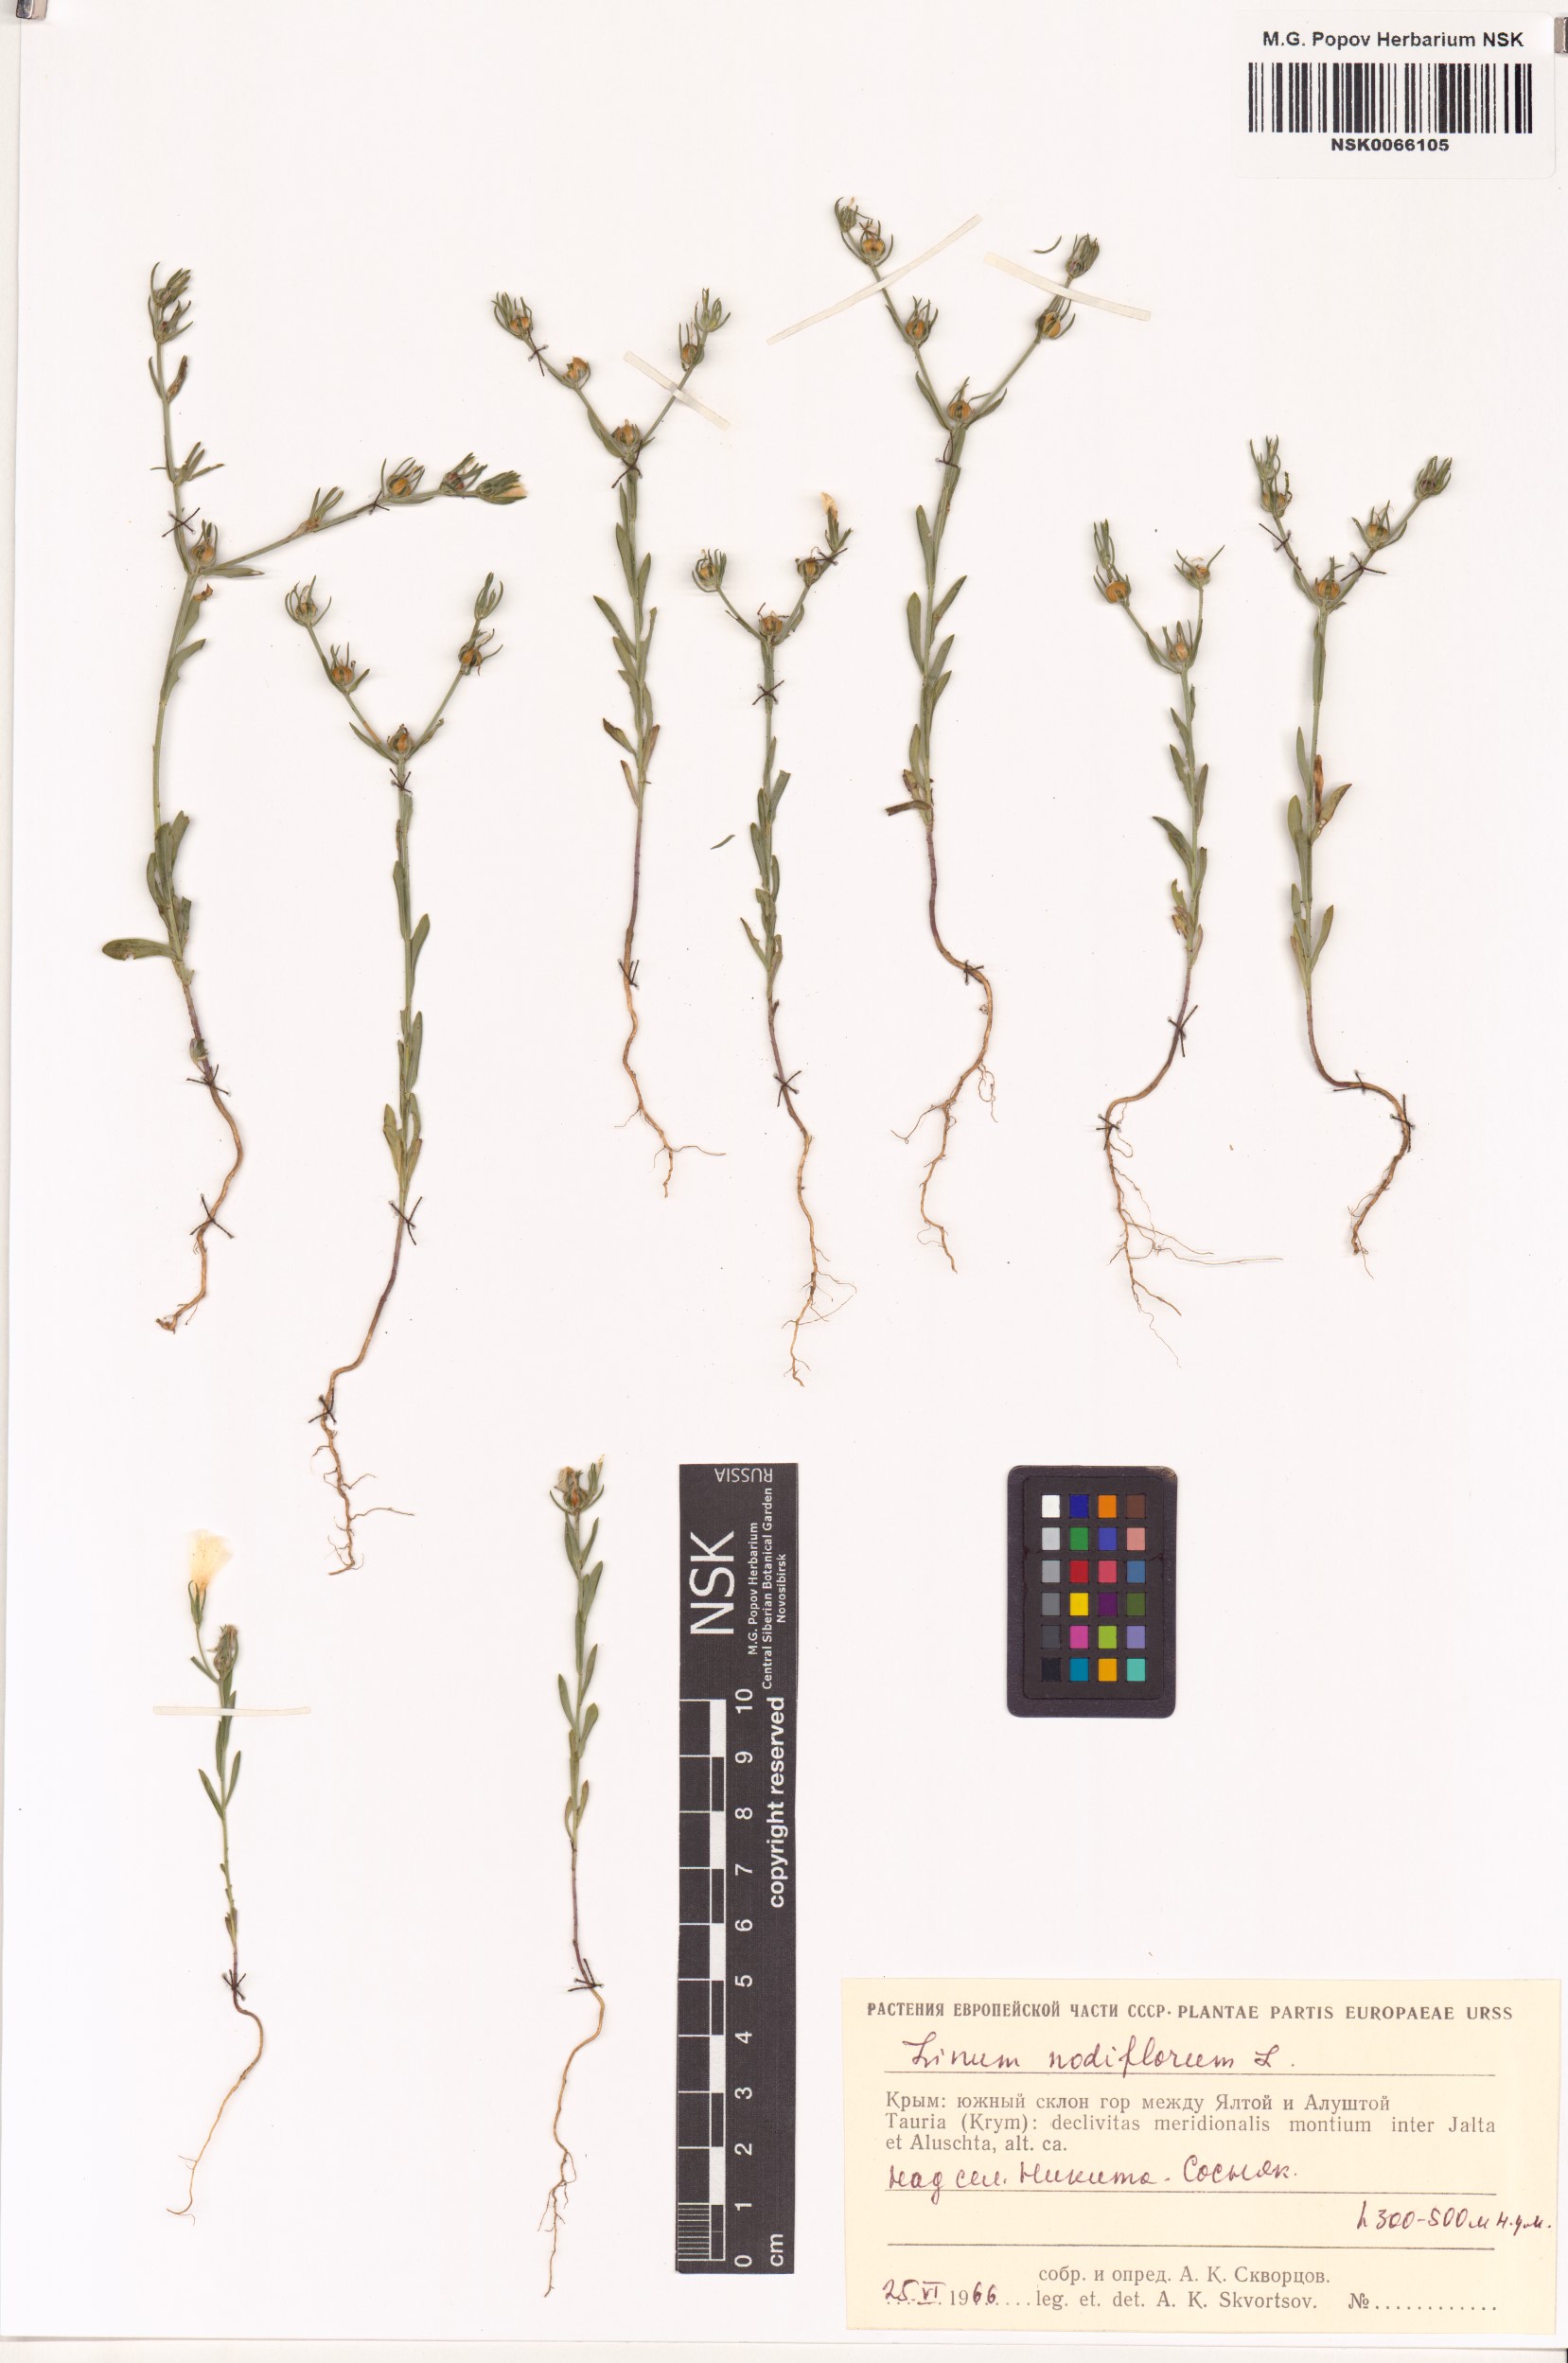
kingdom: Plantae
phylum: Tracheophyta
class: Magnoliopsida
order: Malpighiales
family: Linaceae
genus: Linum
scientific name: Linum nodiflorum
